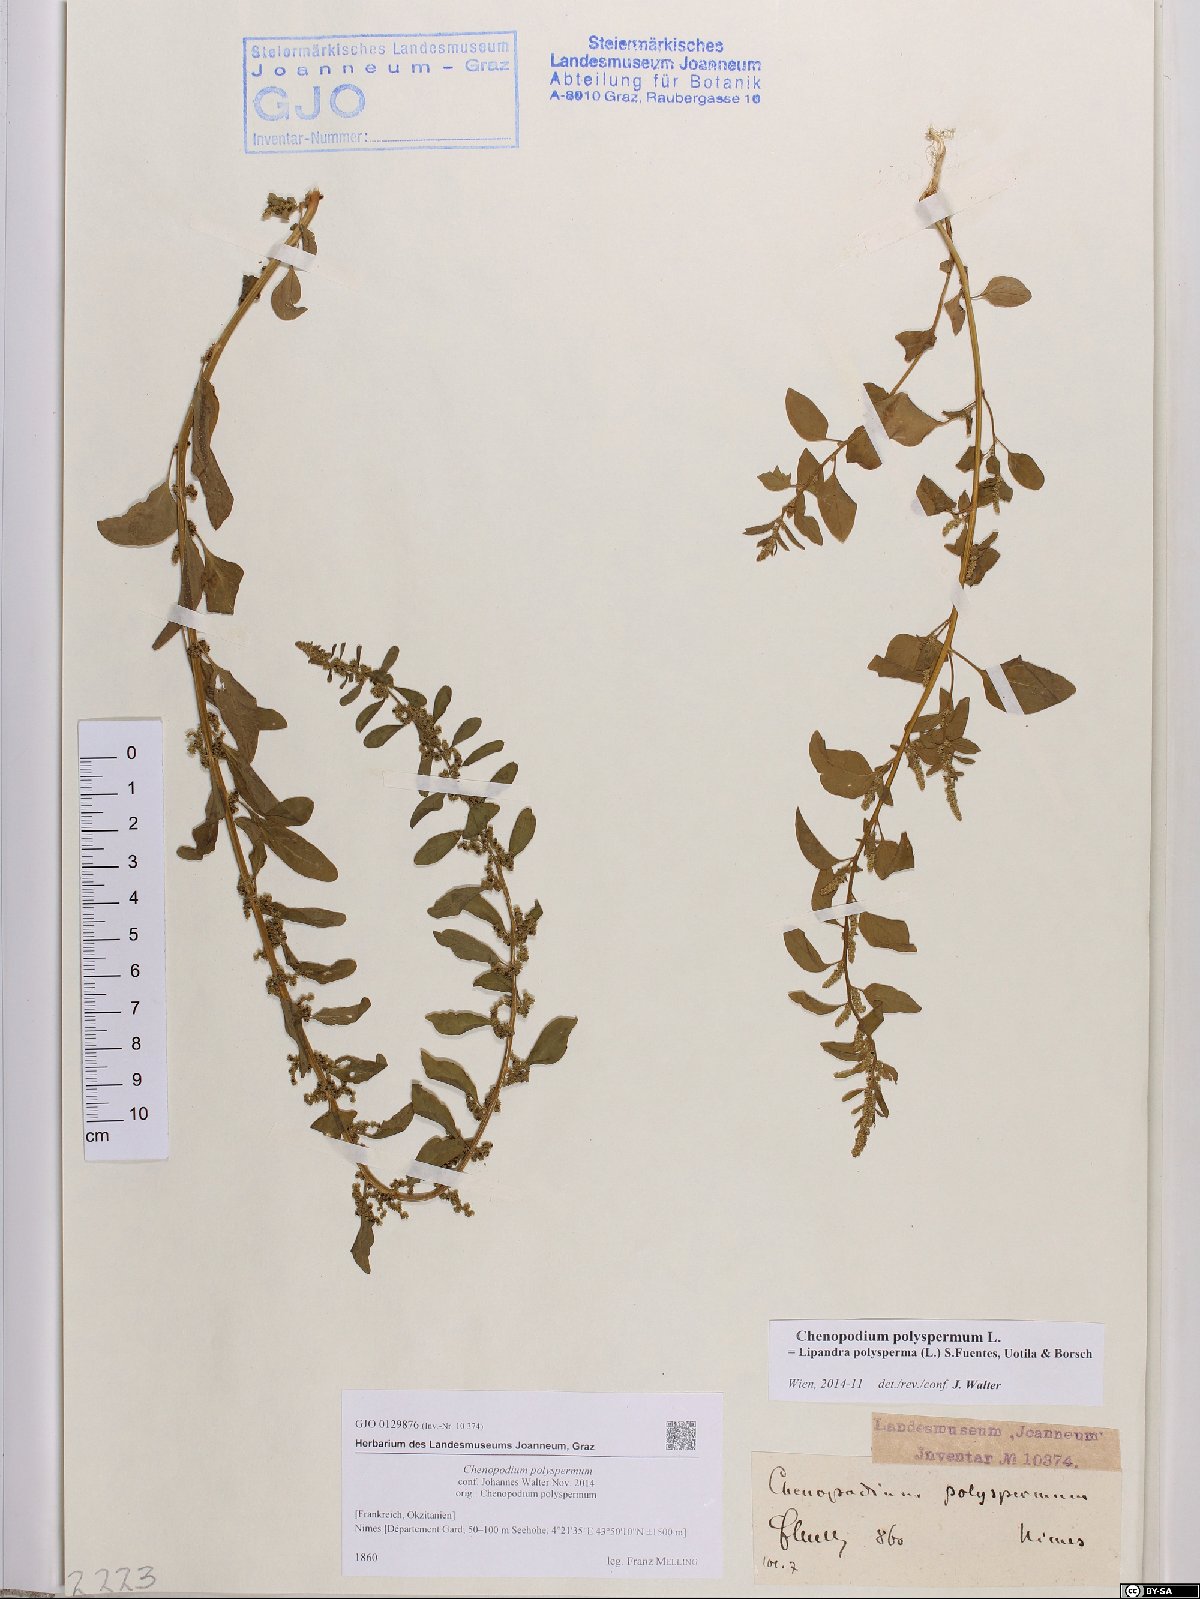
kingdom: Plantae
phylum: Tracheophyta
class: Magnoliopsida
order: Caryophyllales
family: Amaranthaceae
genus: Lipandra
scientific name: Lipandra polysperma
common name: Many-seed goosefoot
